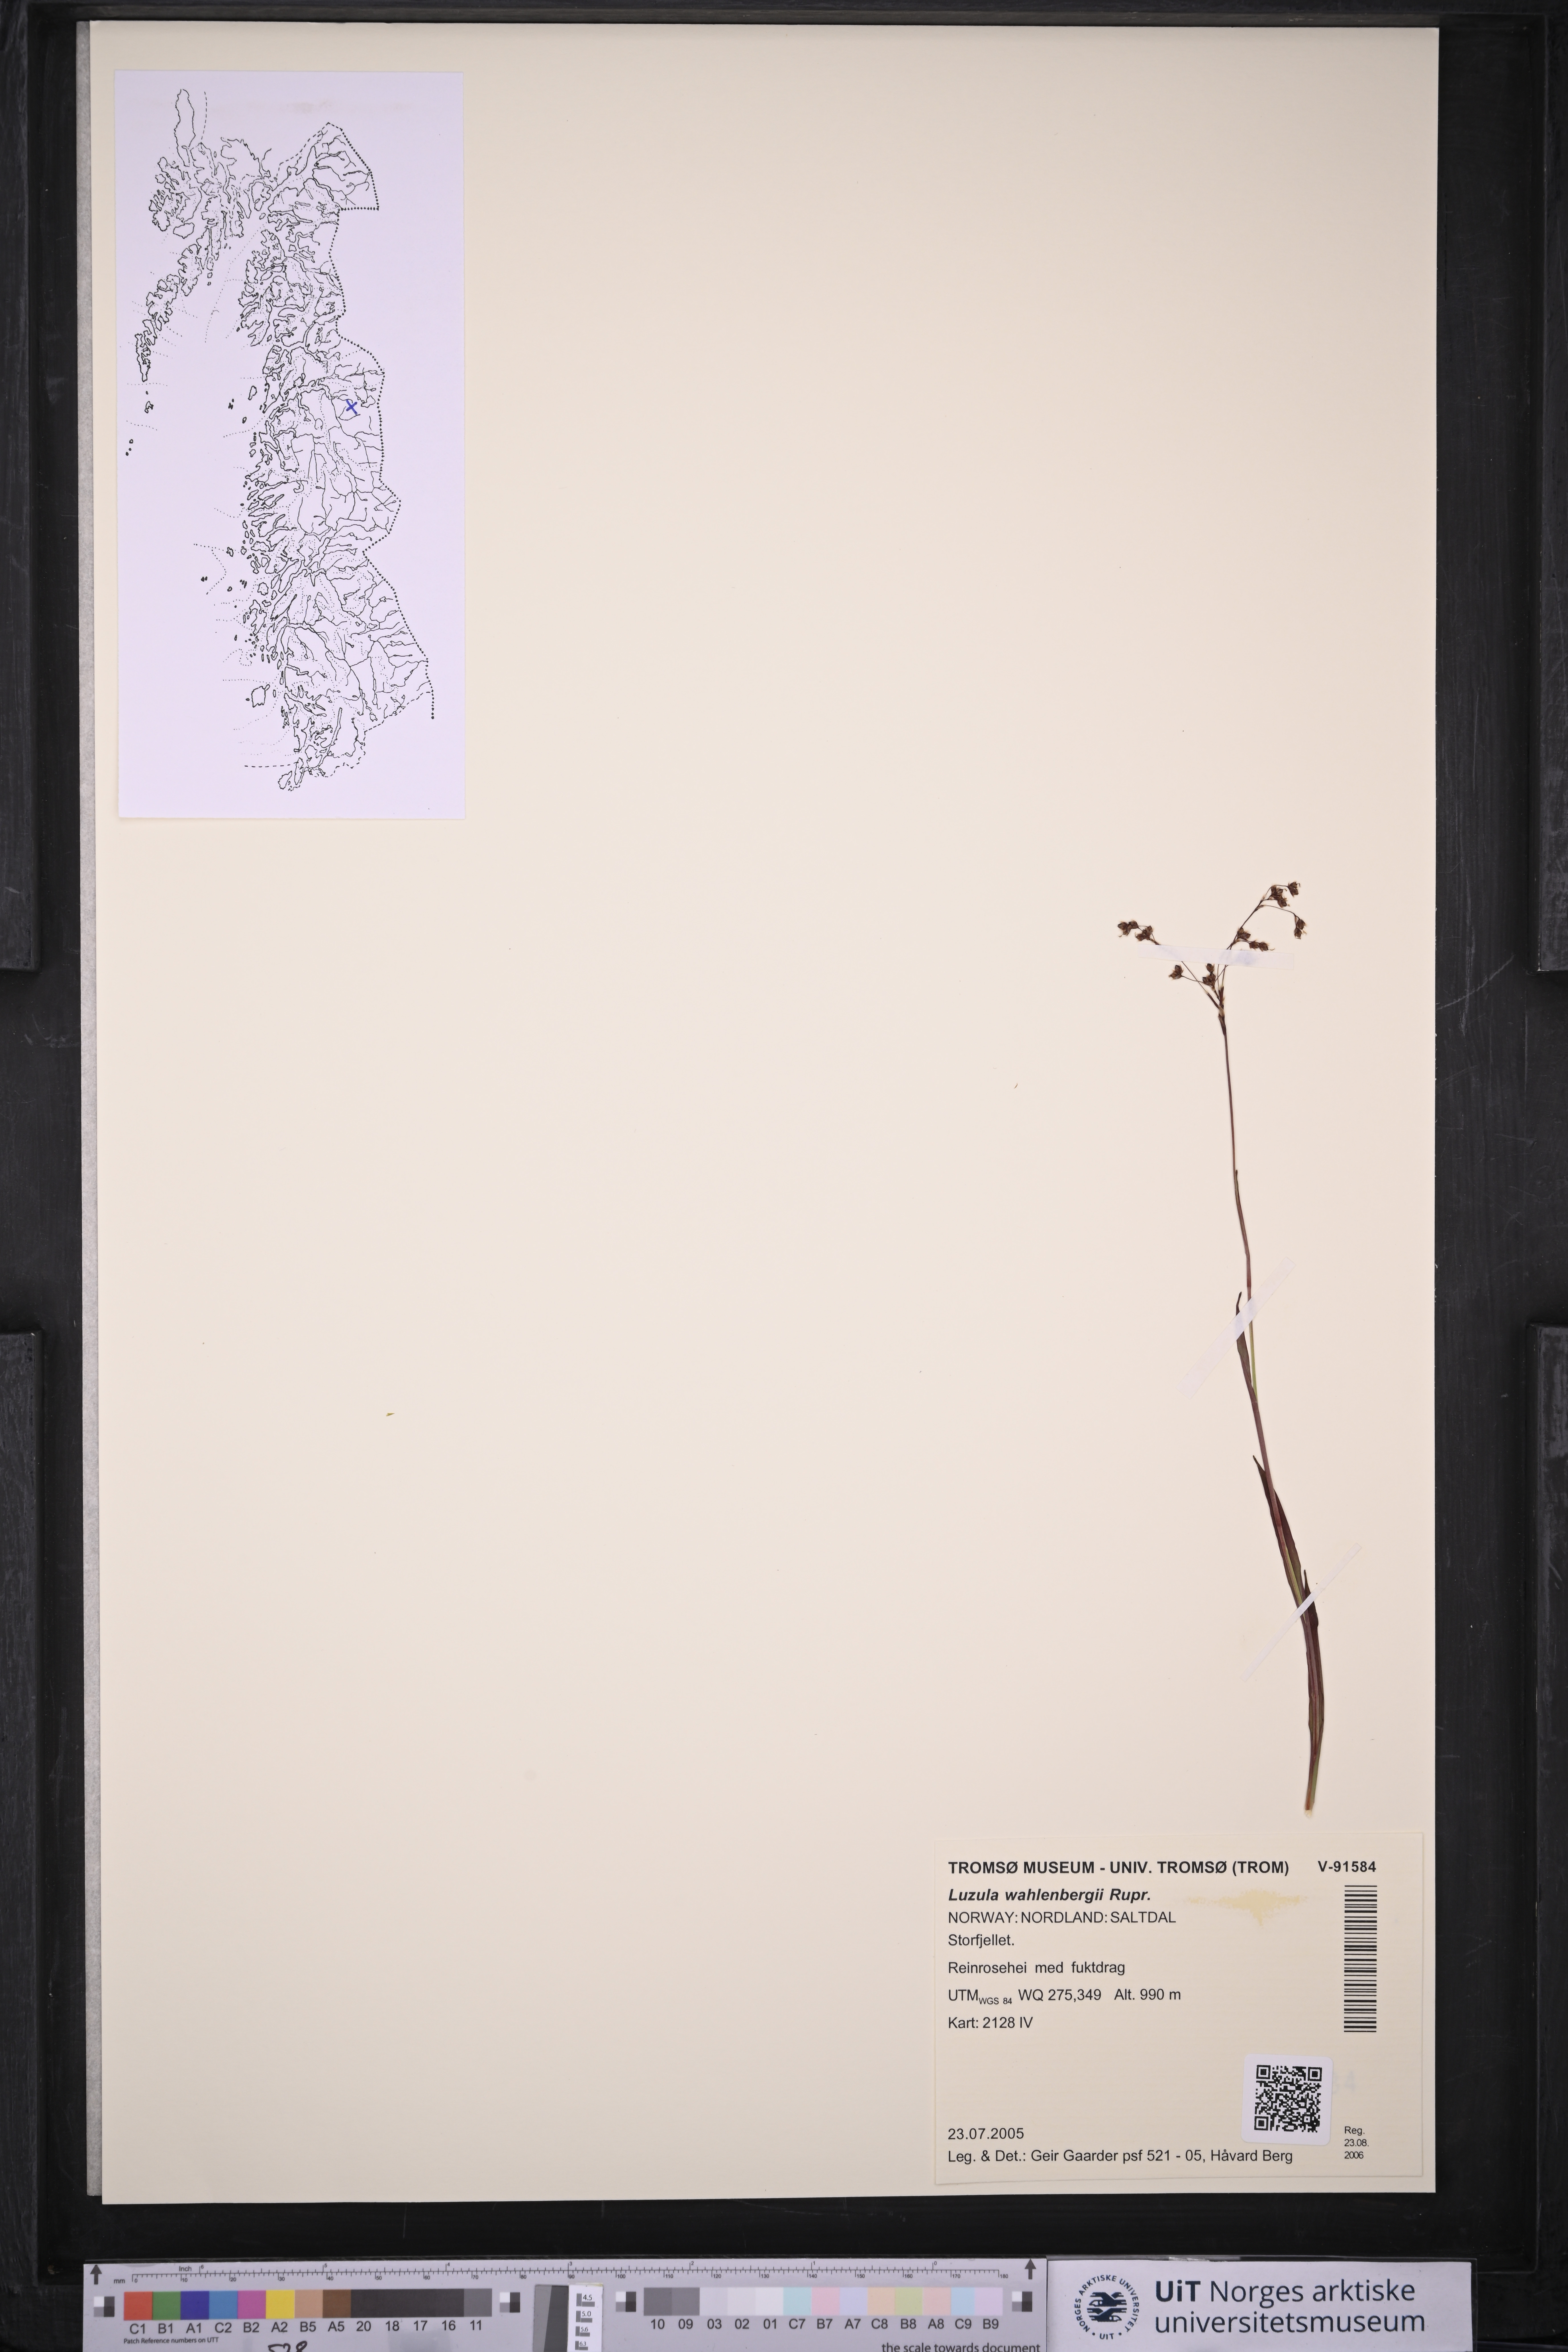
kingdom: Plantae
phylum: Tracheophyta
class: Liliopsida
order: Poales
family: Juncaceae
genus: Luzula
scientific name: Luzula wahlenbergii
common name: Wahlenberg's wood-rush
